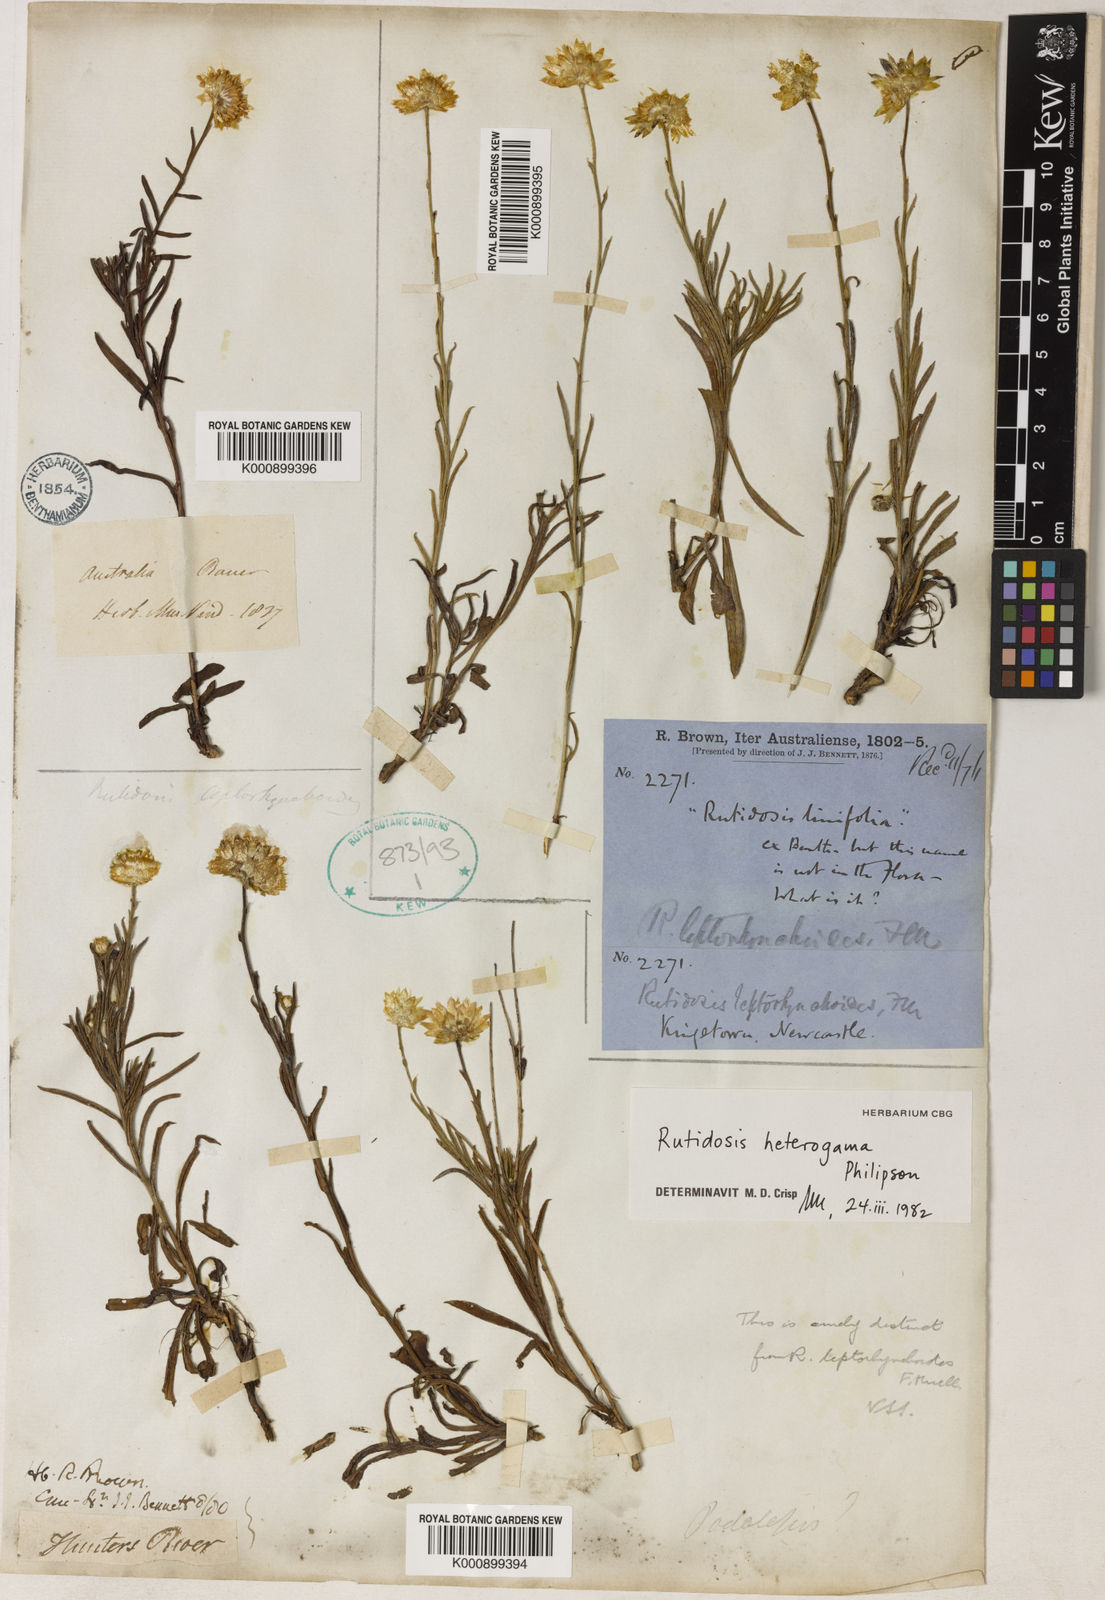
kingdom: Plantae
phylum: Tracheophyta
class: Magnoliopsida
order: Asterales
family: Asteraceae
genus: Rutidosis
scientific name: Rutidosis heterogama
